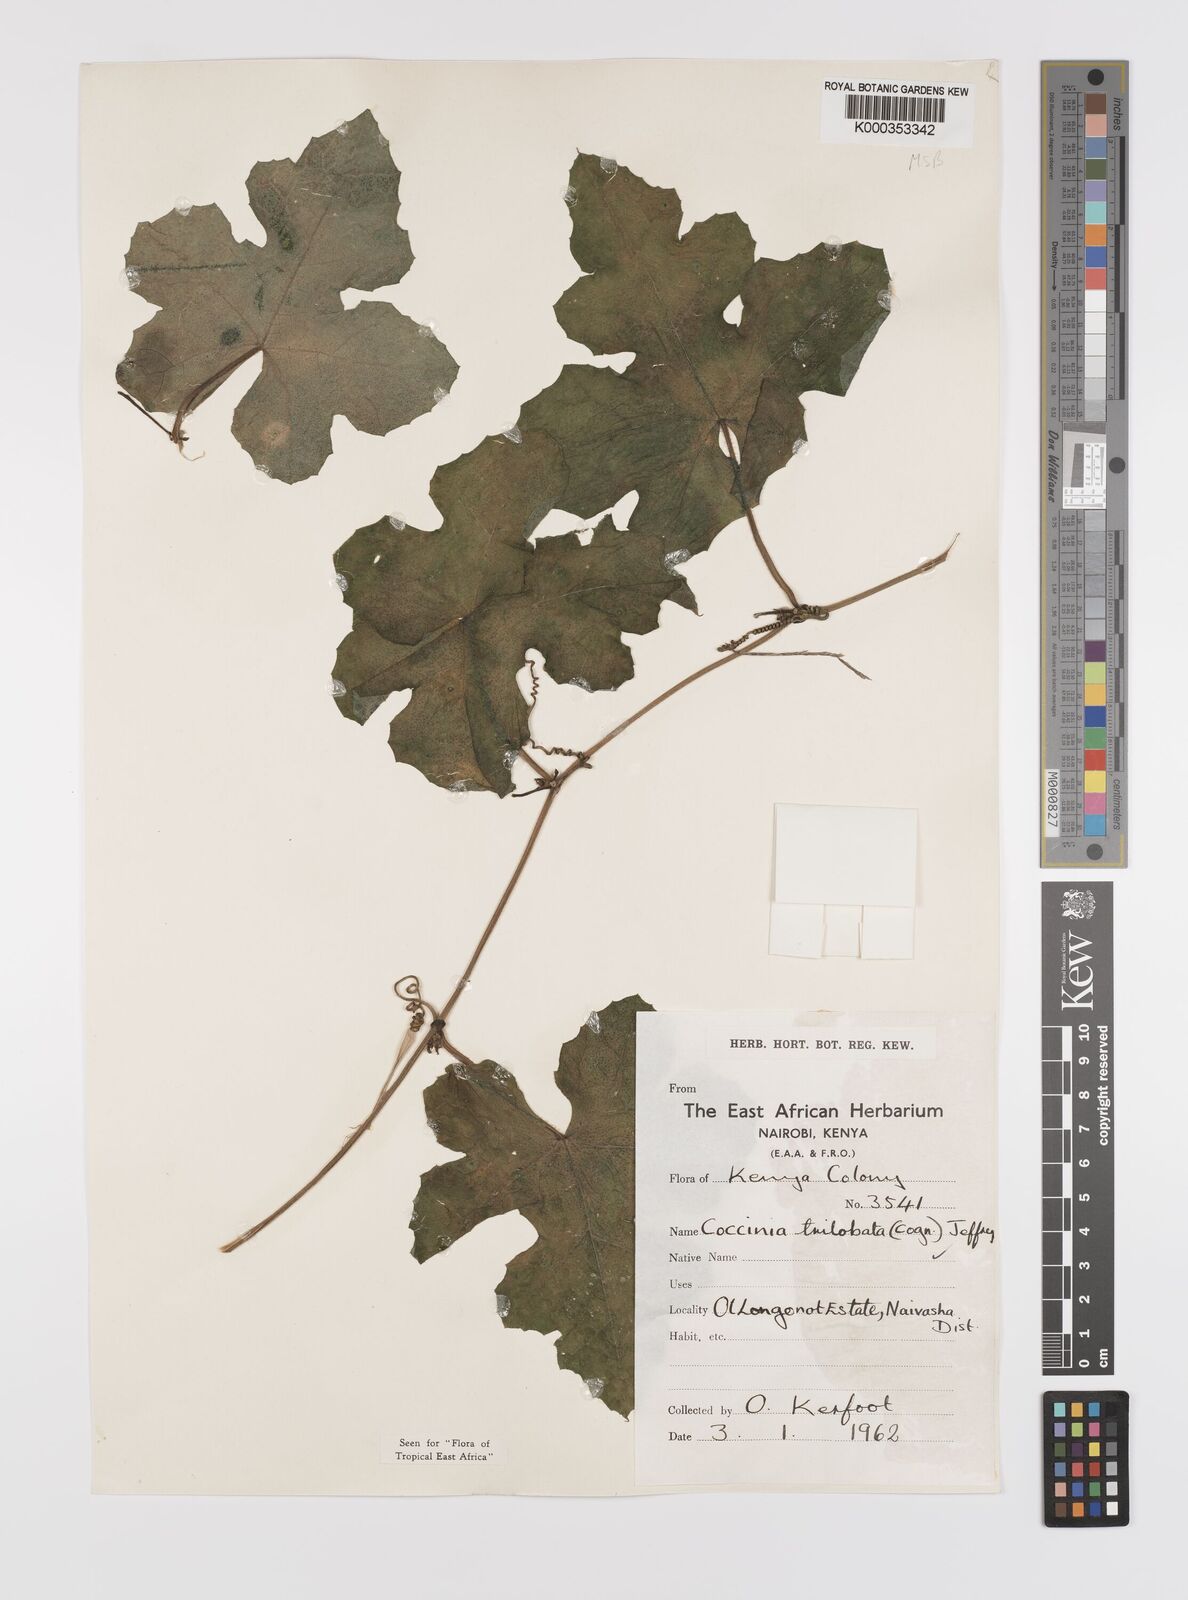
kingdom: Plantae
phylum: Tracheophyta
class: Magnoliopsida
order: Cucurbitales
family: Cucurbitaceae
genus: Coccinia
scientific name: Coccinia trilobata
